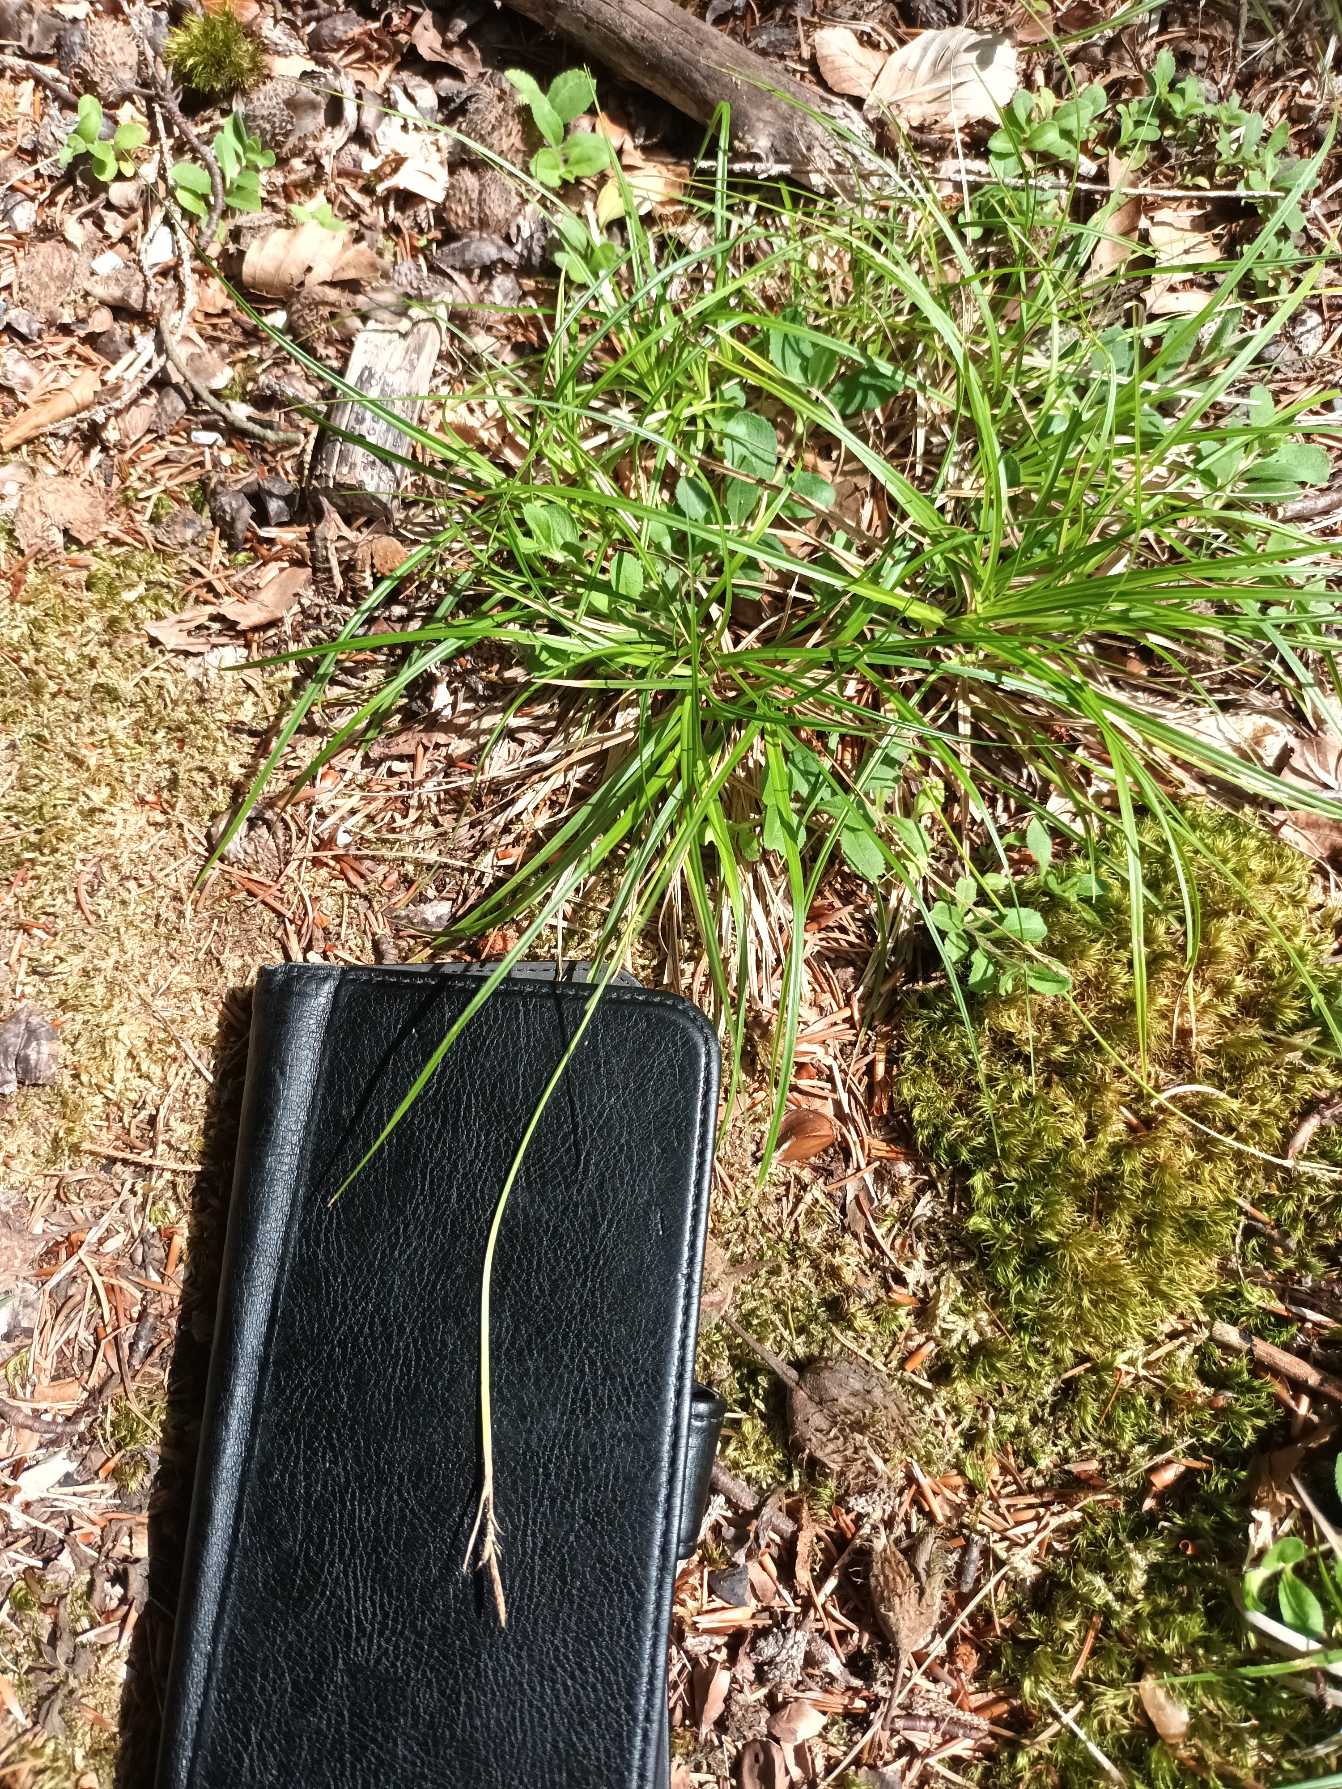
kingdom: Plantae
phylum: Tracheophyta
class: Liliopsida
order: Poales
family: Cyperaceae
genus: Carex
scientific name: Carex pilulifera
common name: Pille-star
